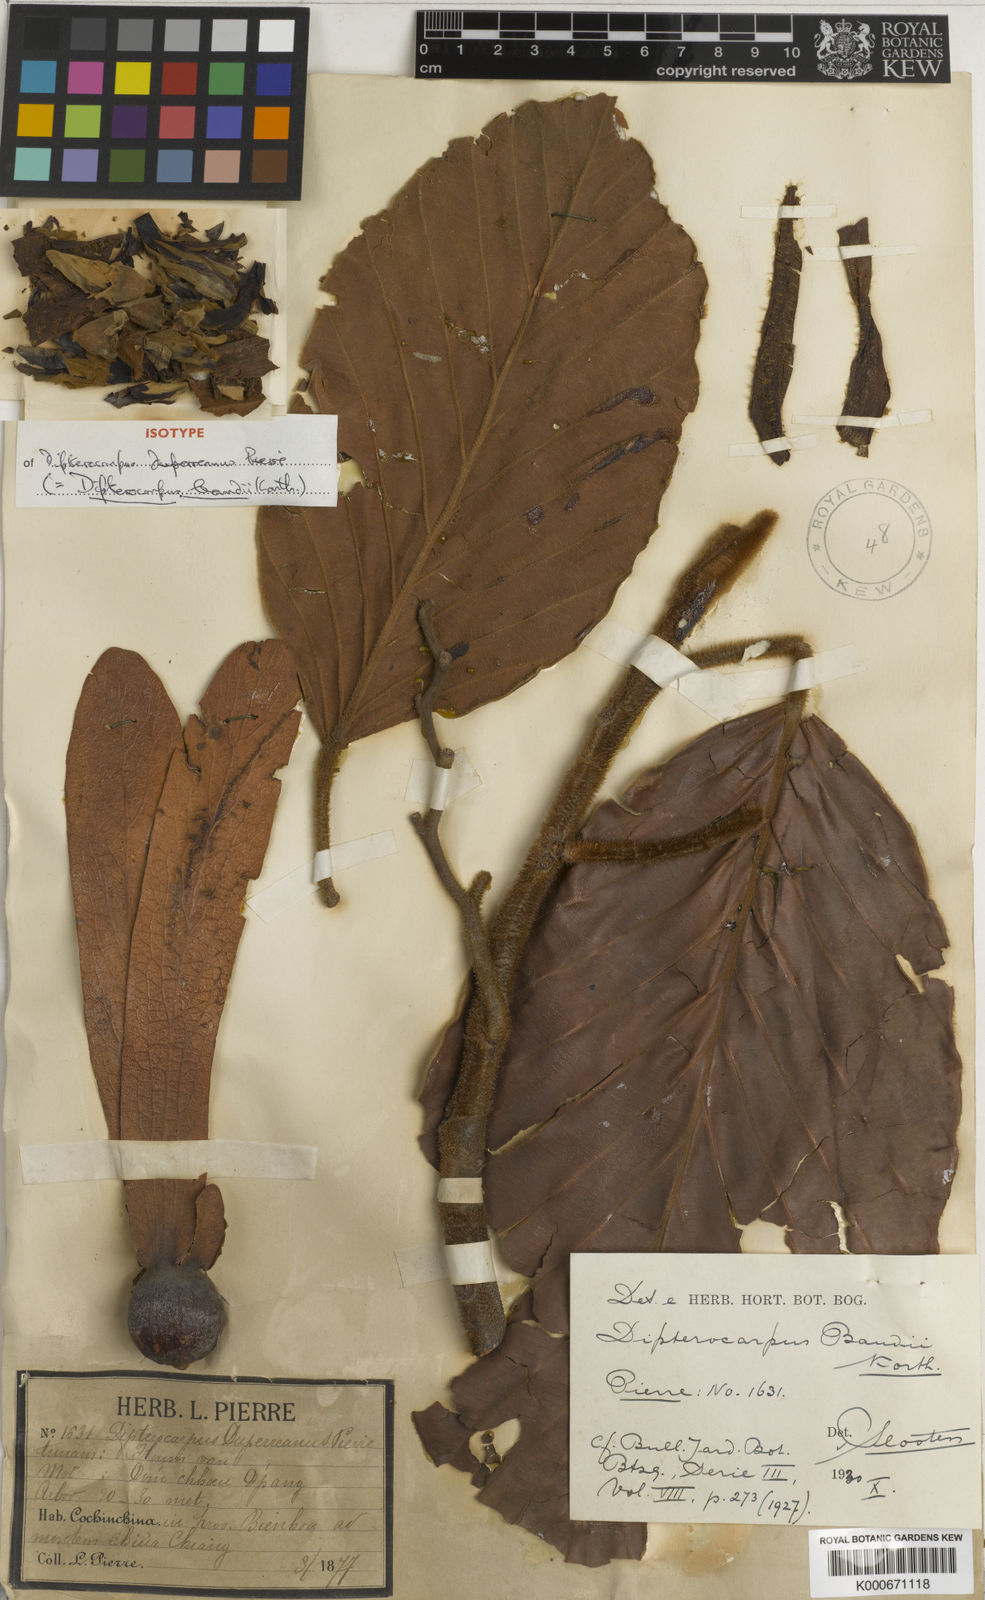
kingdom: Plantae
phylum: Tracheophyta
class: Magnoliopsida
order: Malvales
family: Dipterocarpaceae
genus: Dipterocarpus
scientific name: Dipterocarpus baudii
